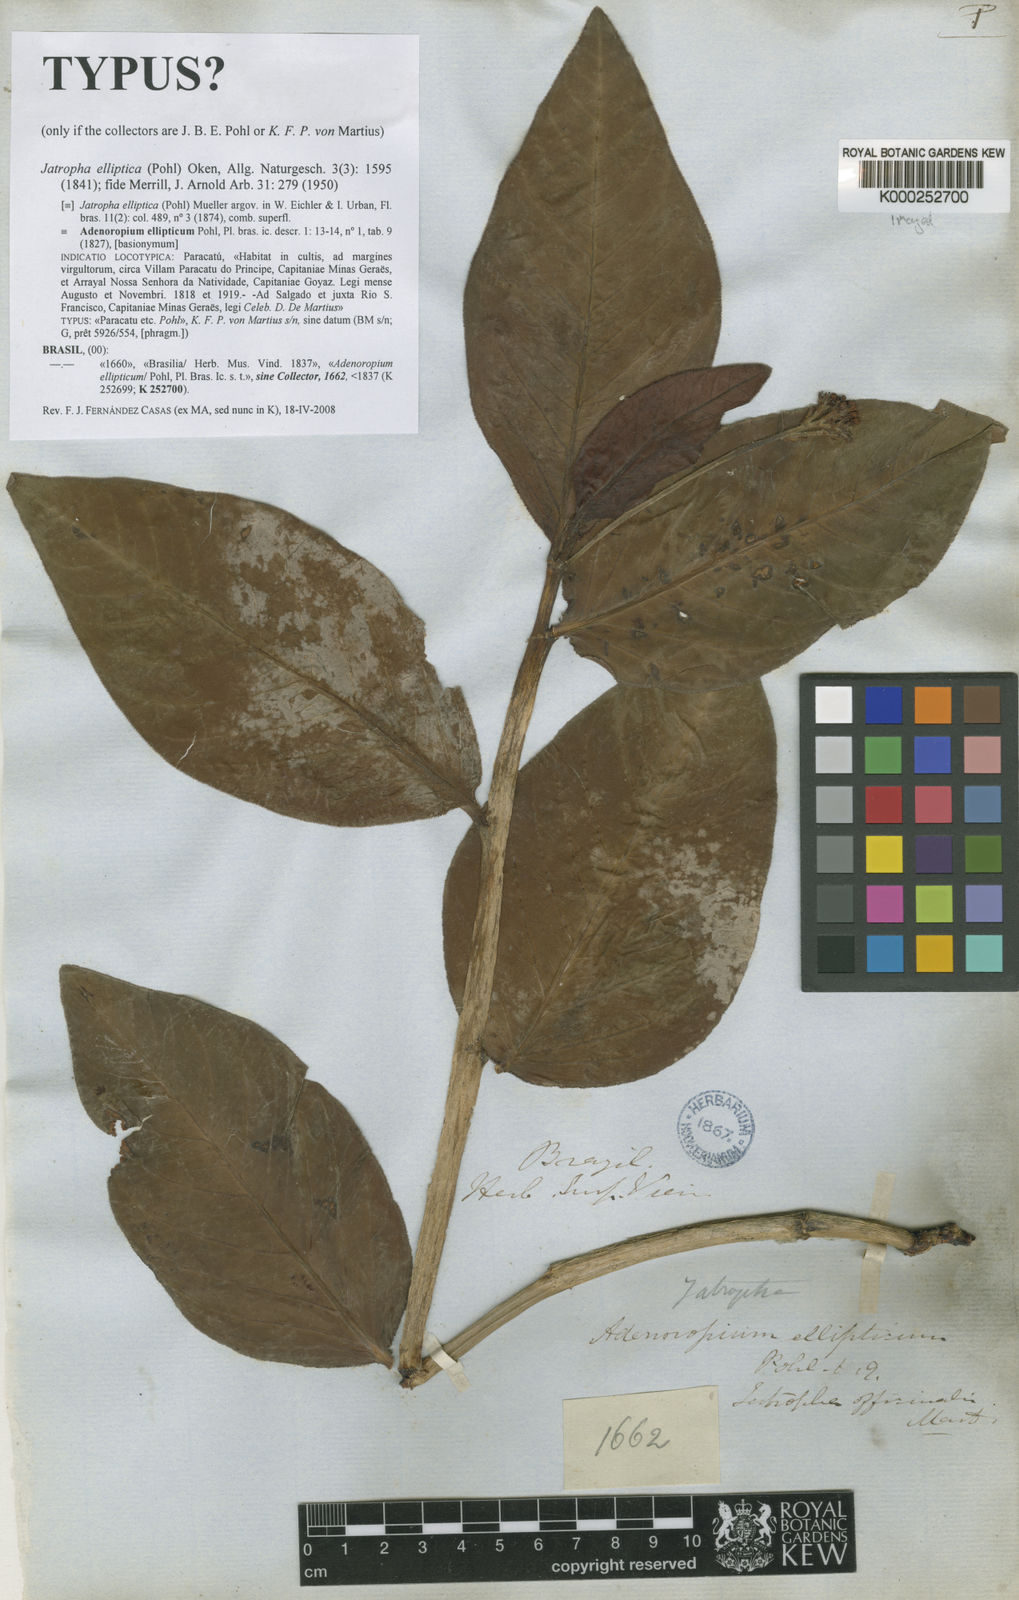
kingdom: Plantae
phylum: Tracheophyta
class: Magnoliopsida
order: Malpighiales
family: Euphorbiaceae
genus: Jatropha
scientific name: Jatropha elliptica
